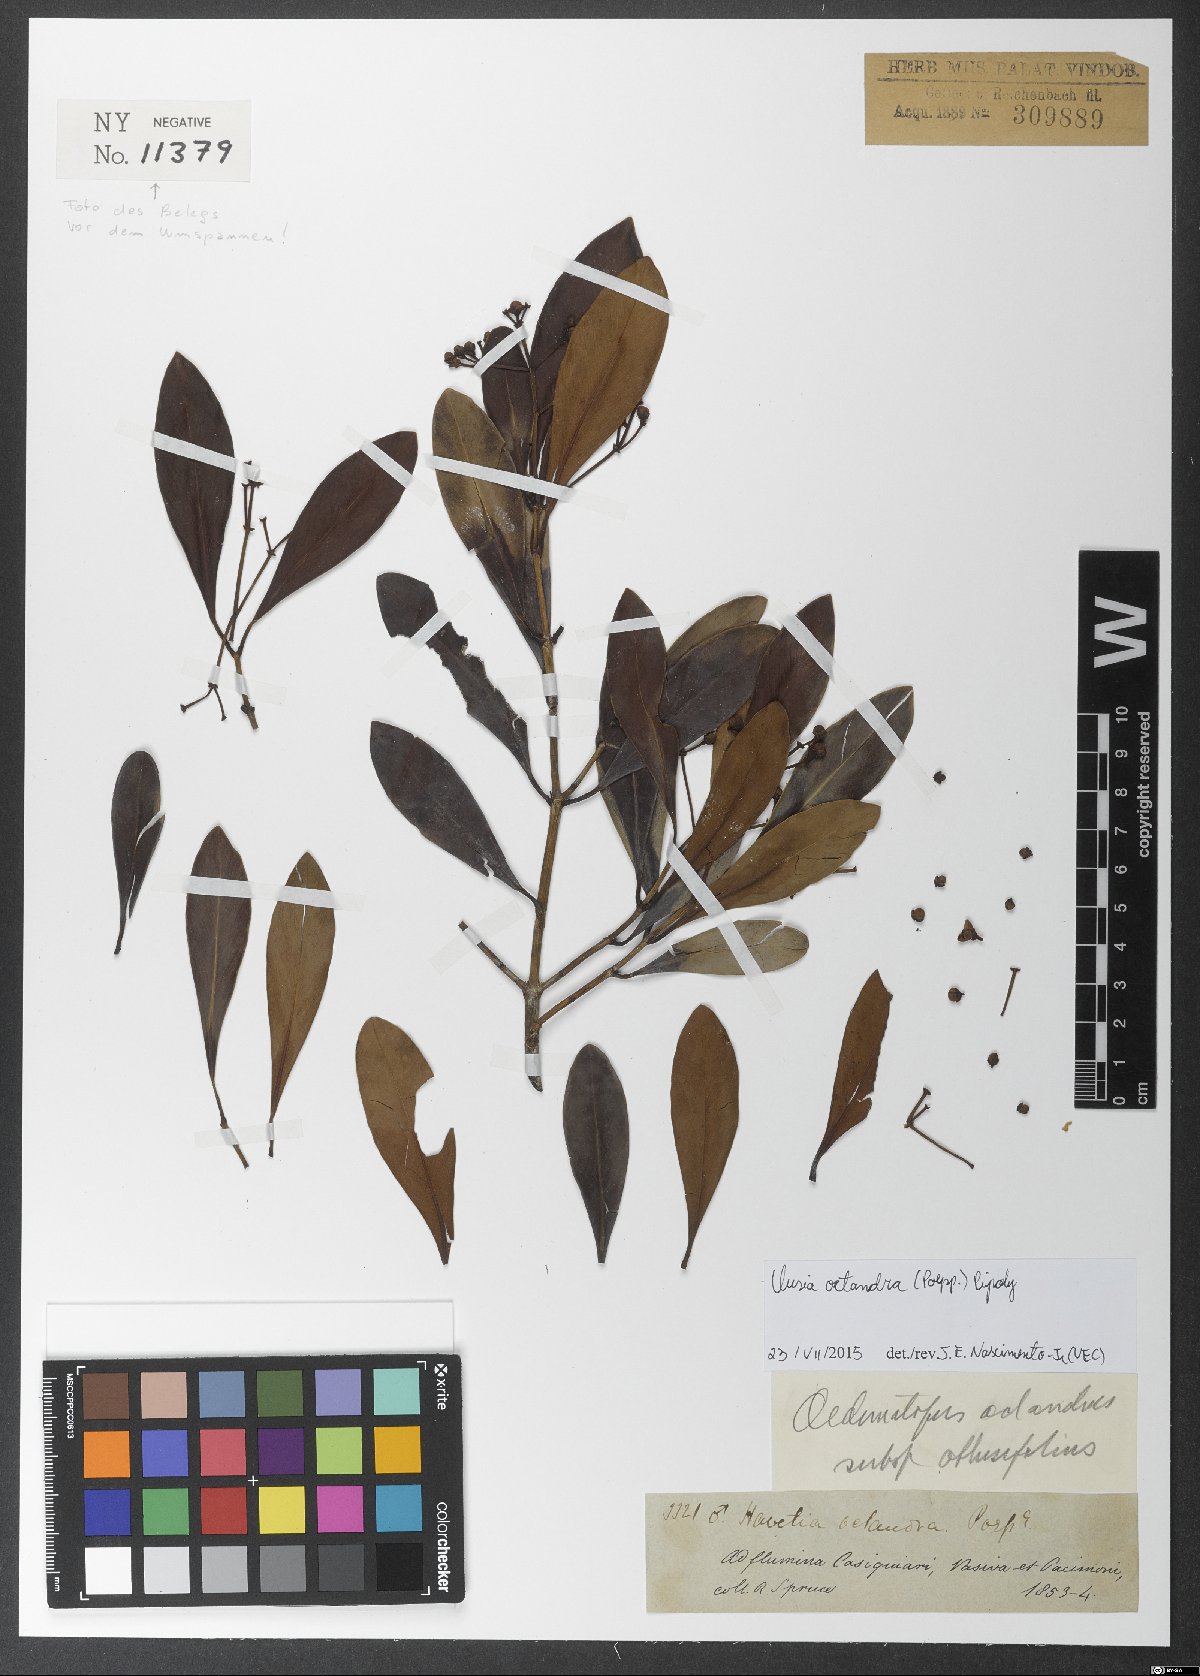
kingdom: Plantae
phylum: Tracheophyta
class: Magnoliopsida
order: Malpighiales
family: Clusiaceae
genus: Clusia
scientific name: Clusia octandra
